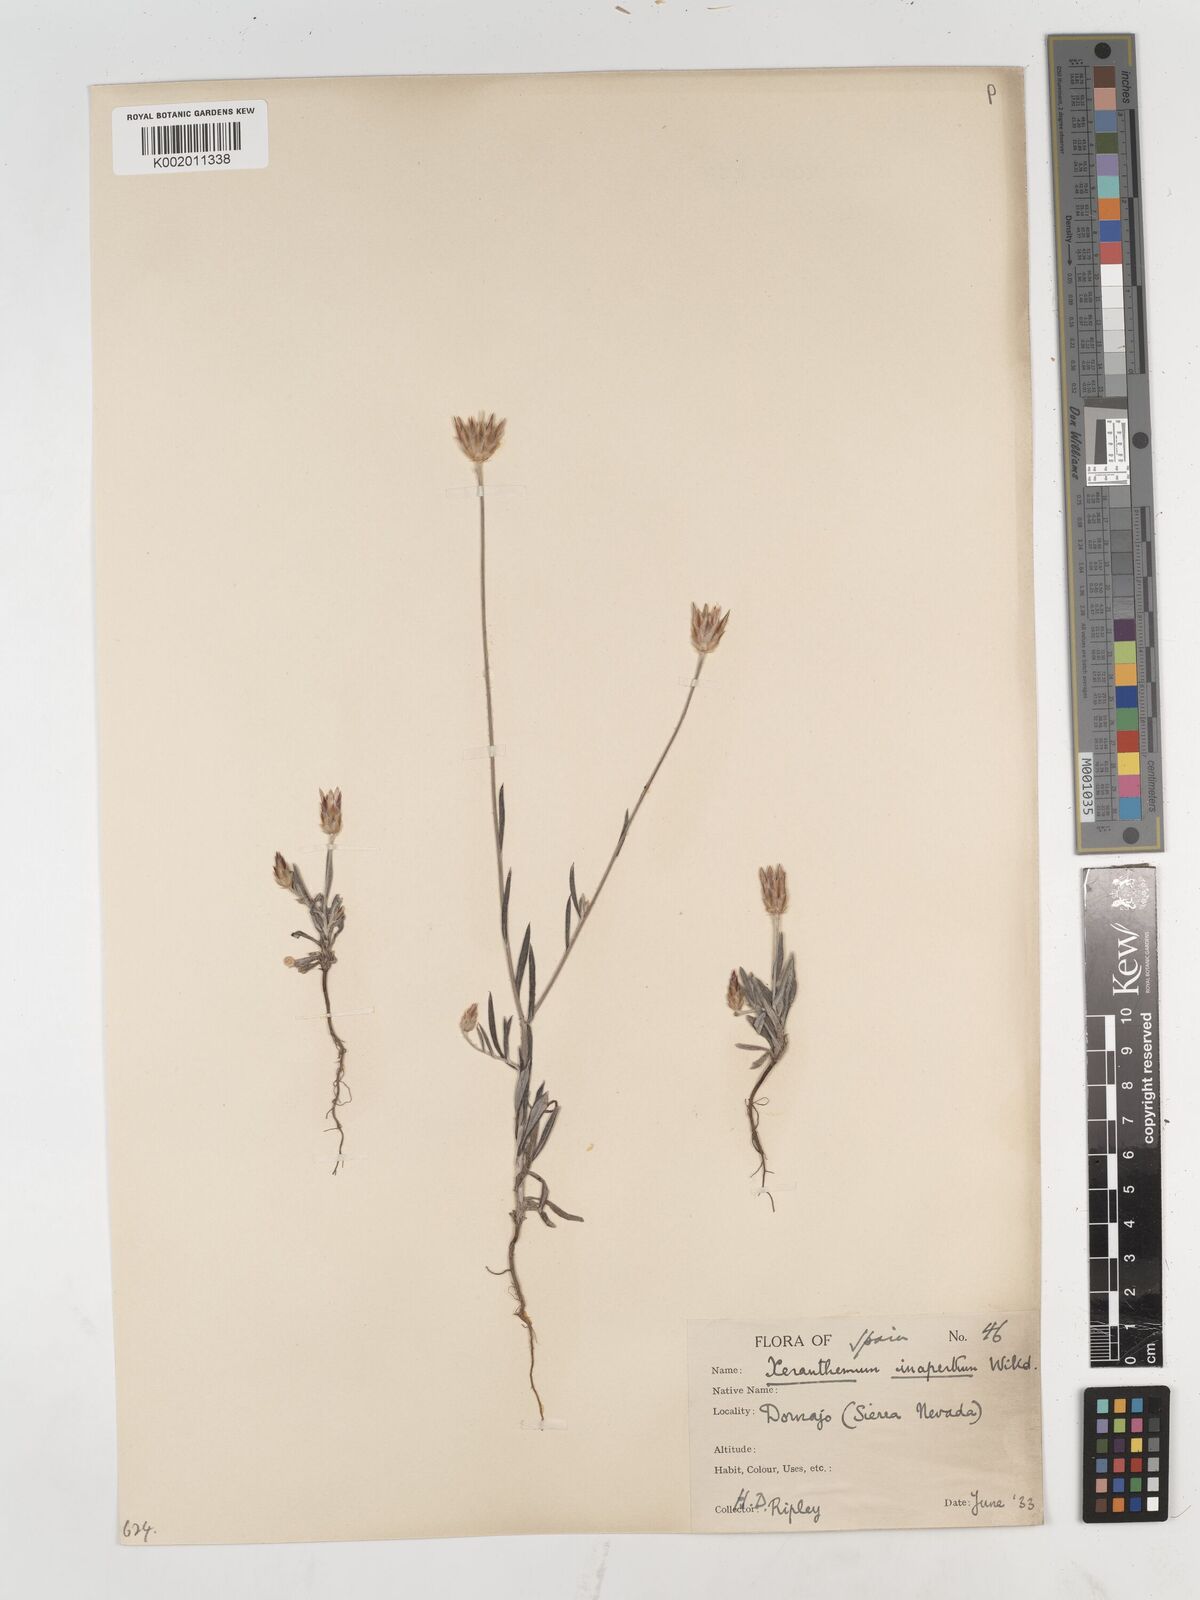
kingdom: Plantae
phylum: Tracheophyta
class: Magnoliopsida
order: Asterales
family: Asteraceae
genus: Xeranthemum
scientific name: Xeranthemum inapertum
